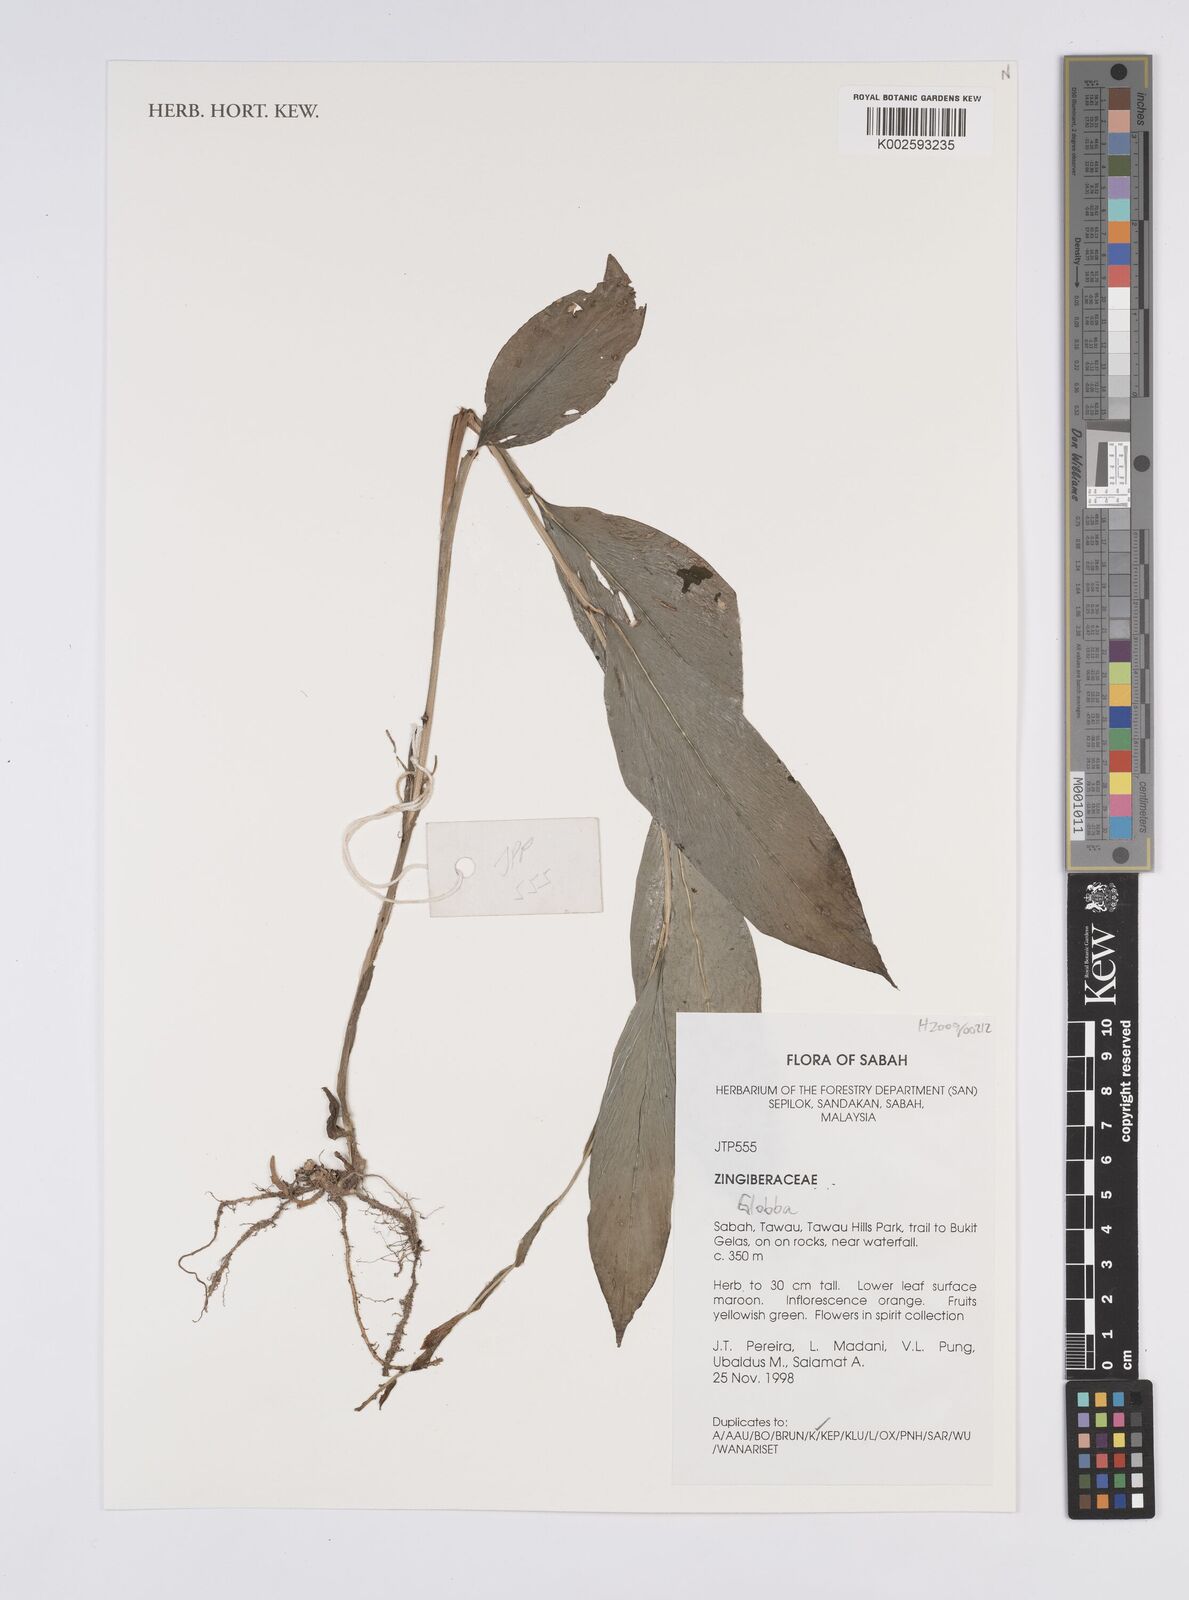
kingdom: Plantae
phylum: Tracheophyta
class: Liliopsida
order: Zingiberales
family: Zingiberaceae
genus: Globba
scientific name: Globba
